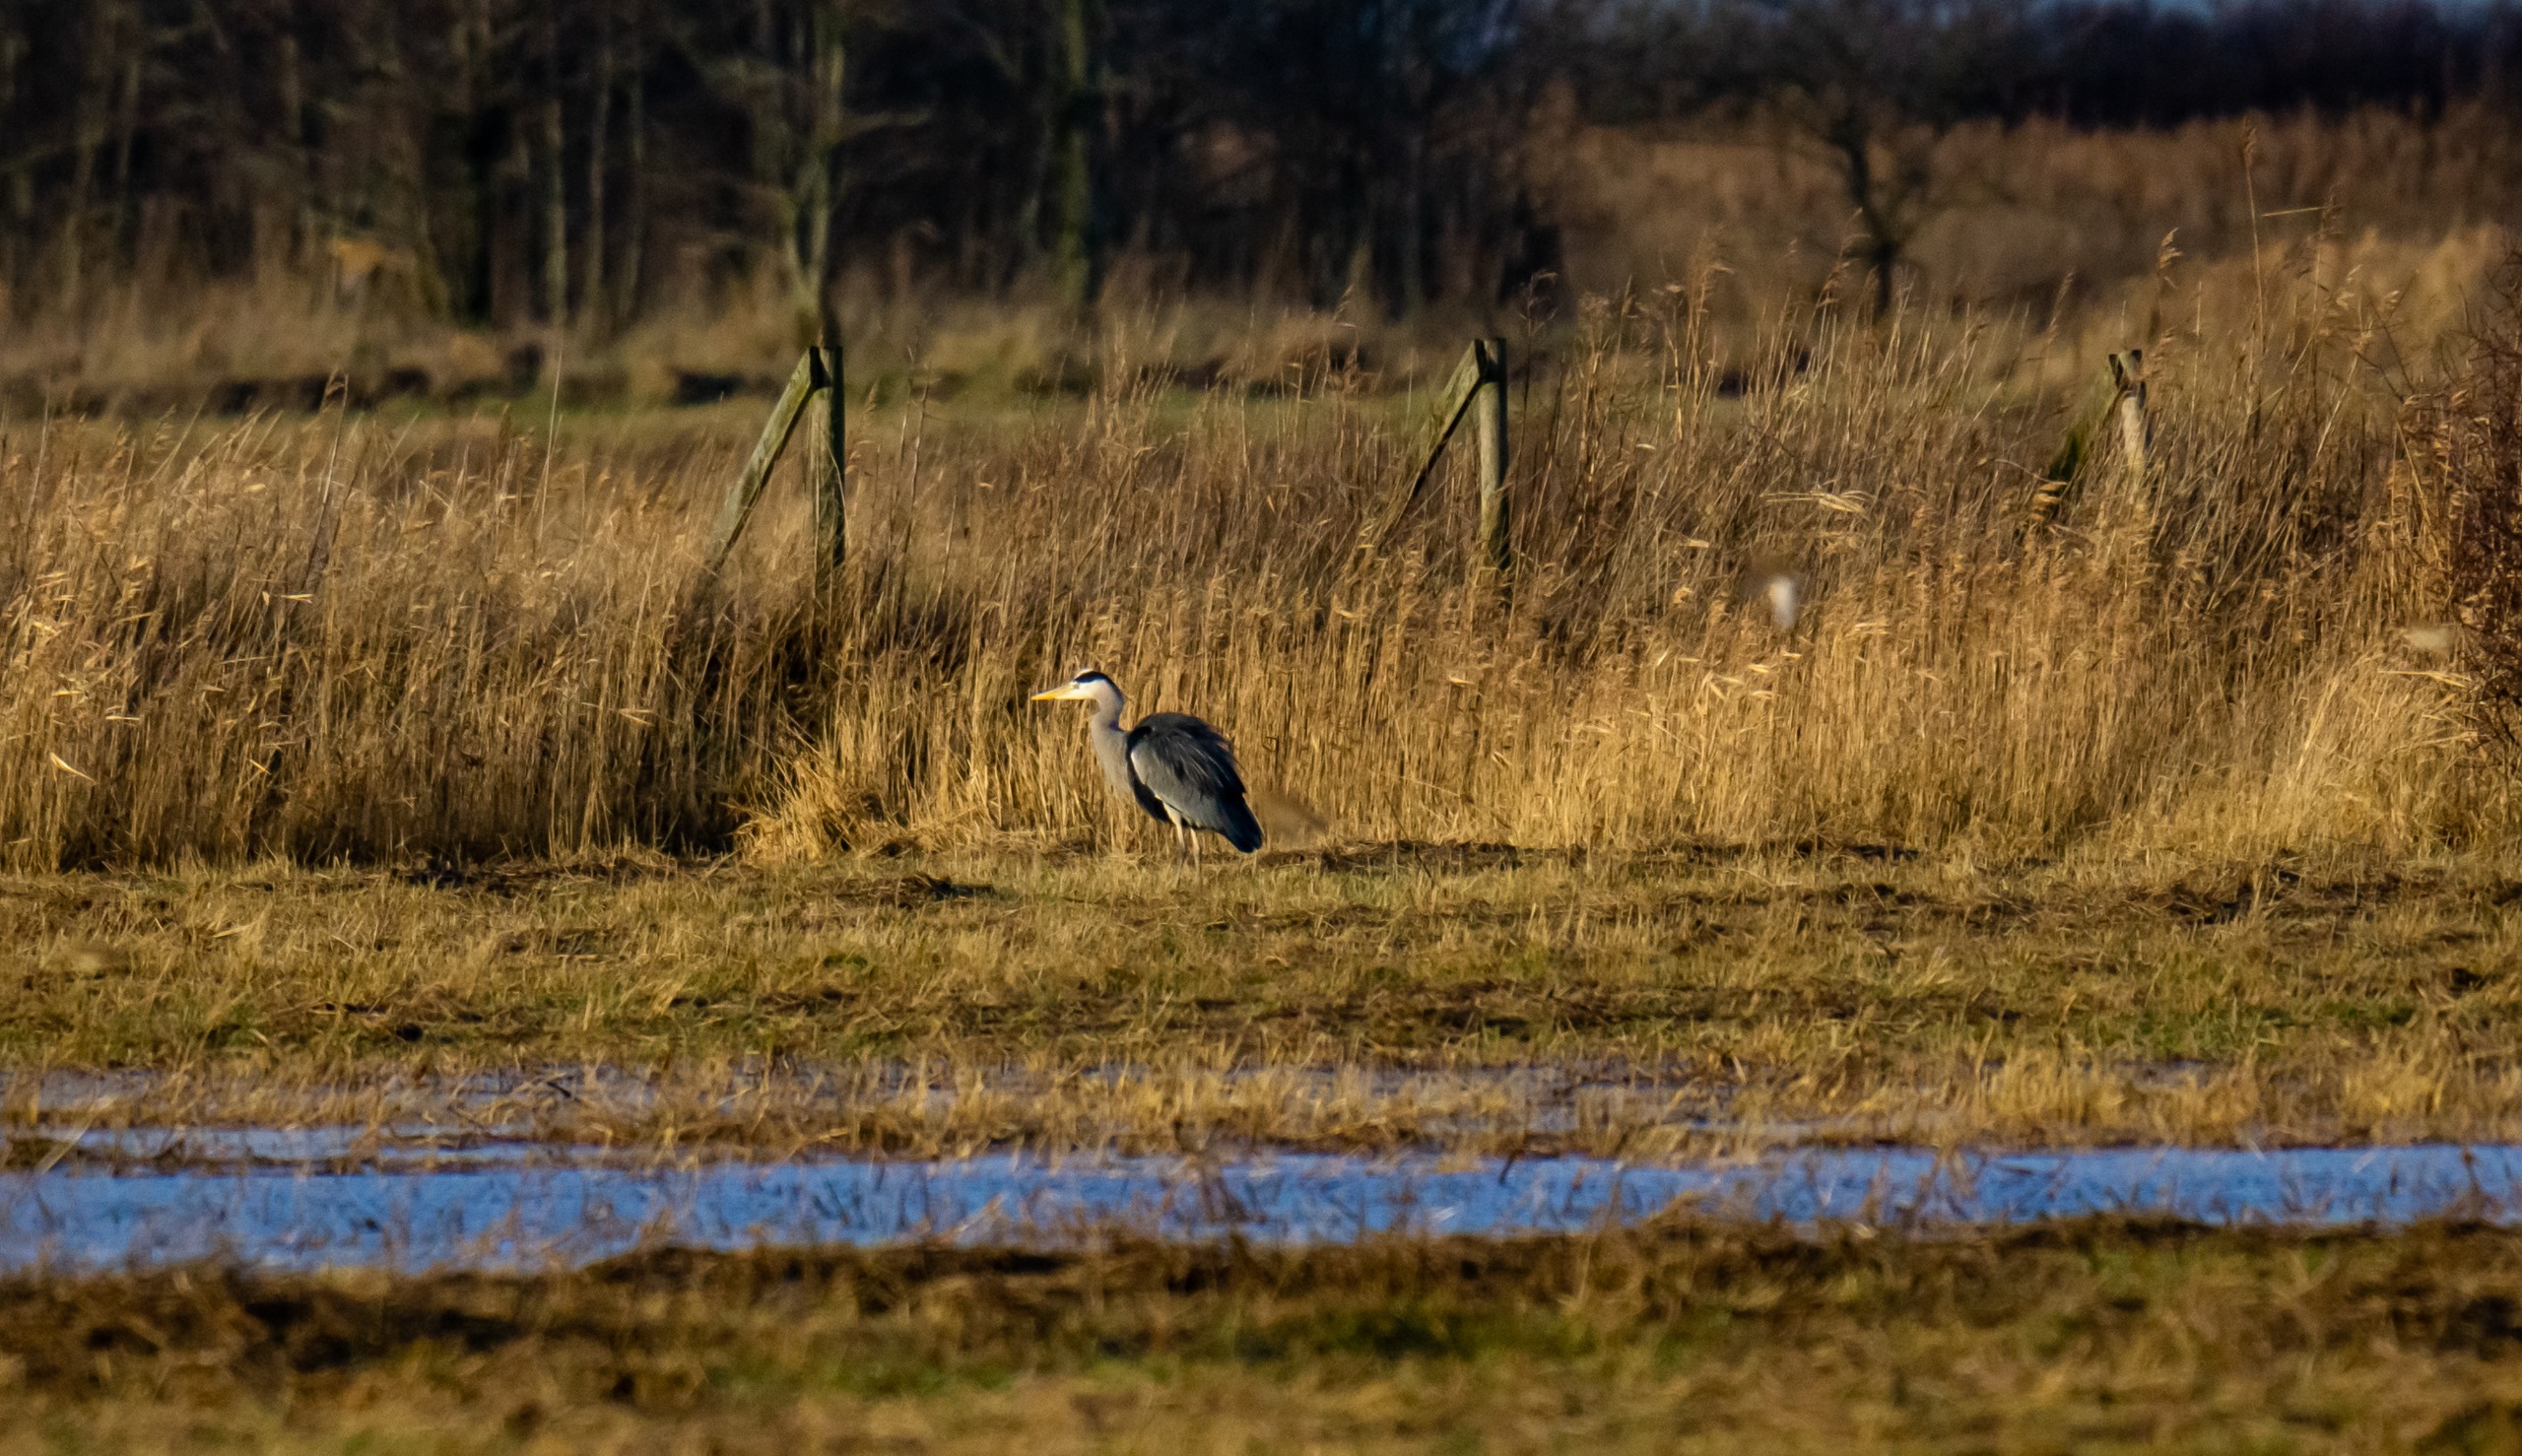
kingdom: Animalia
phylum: Chordata
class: Aves
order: Pelecaniformes
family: Ardeidae
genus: Ardea
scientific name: Ardea cinerea
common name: Fiskehejre
